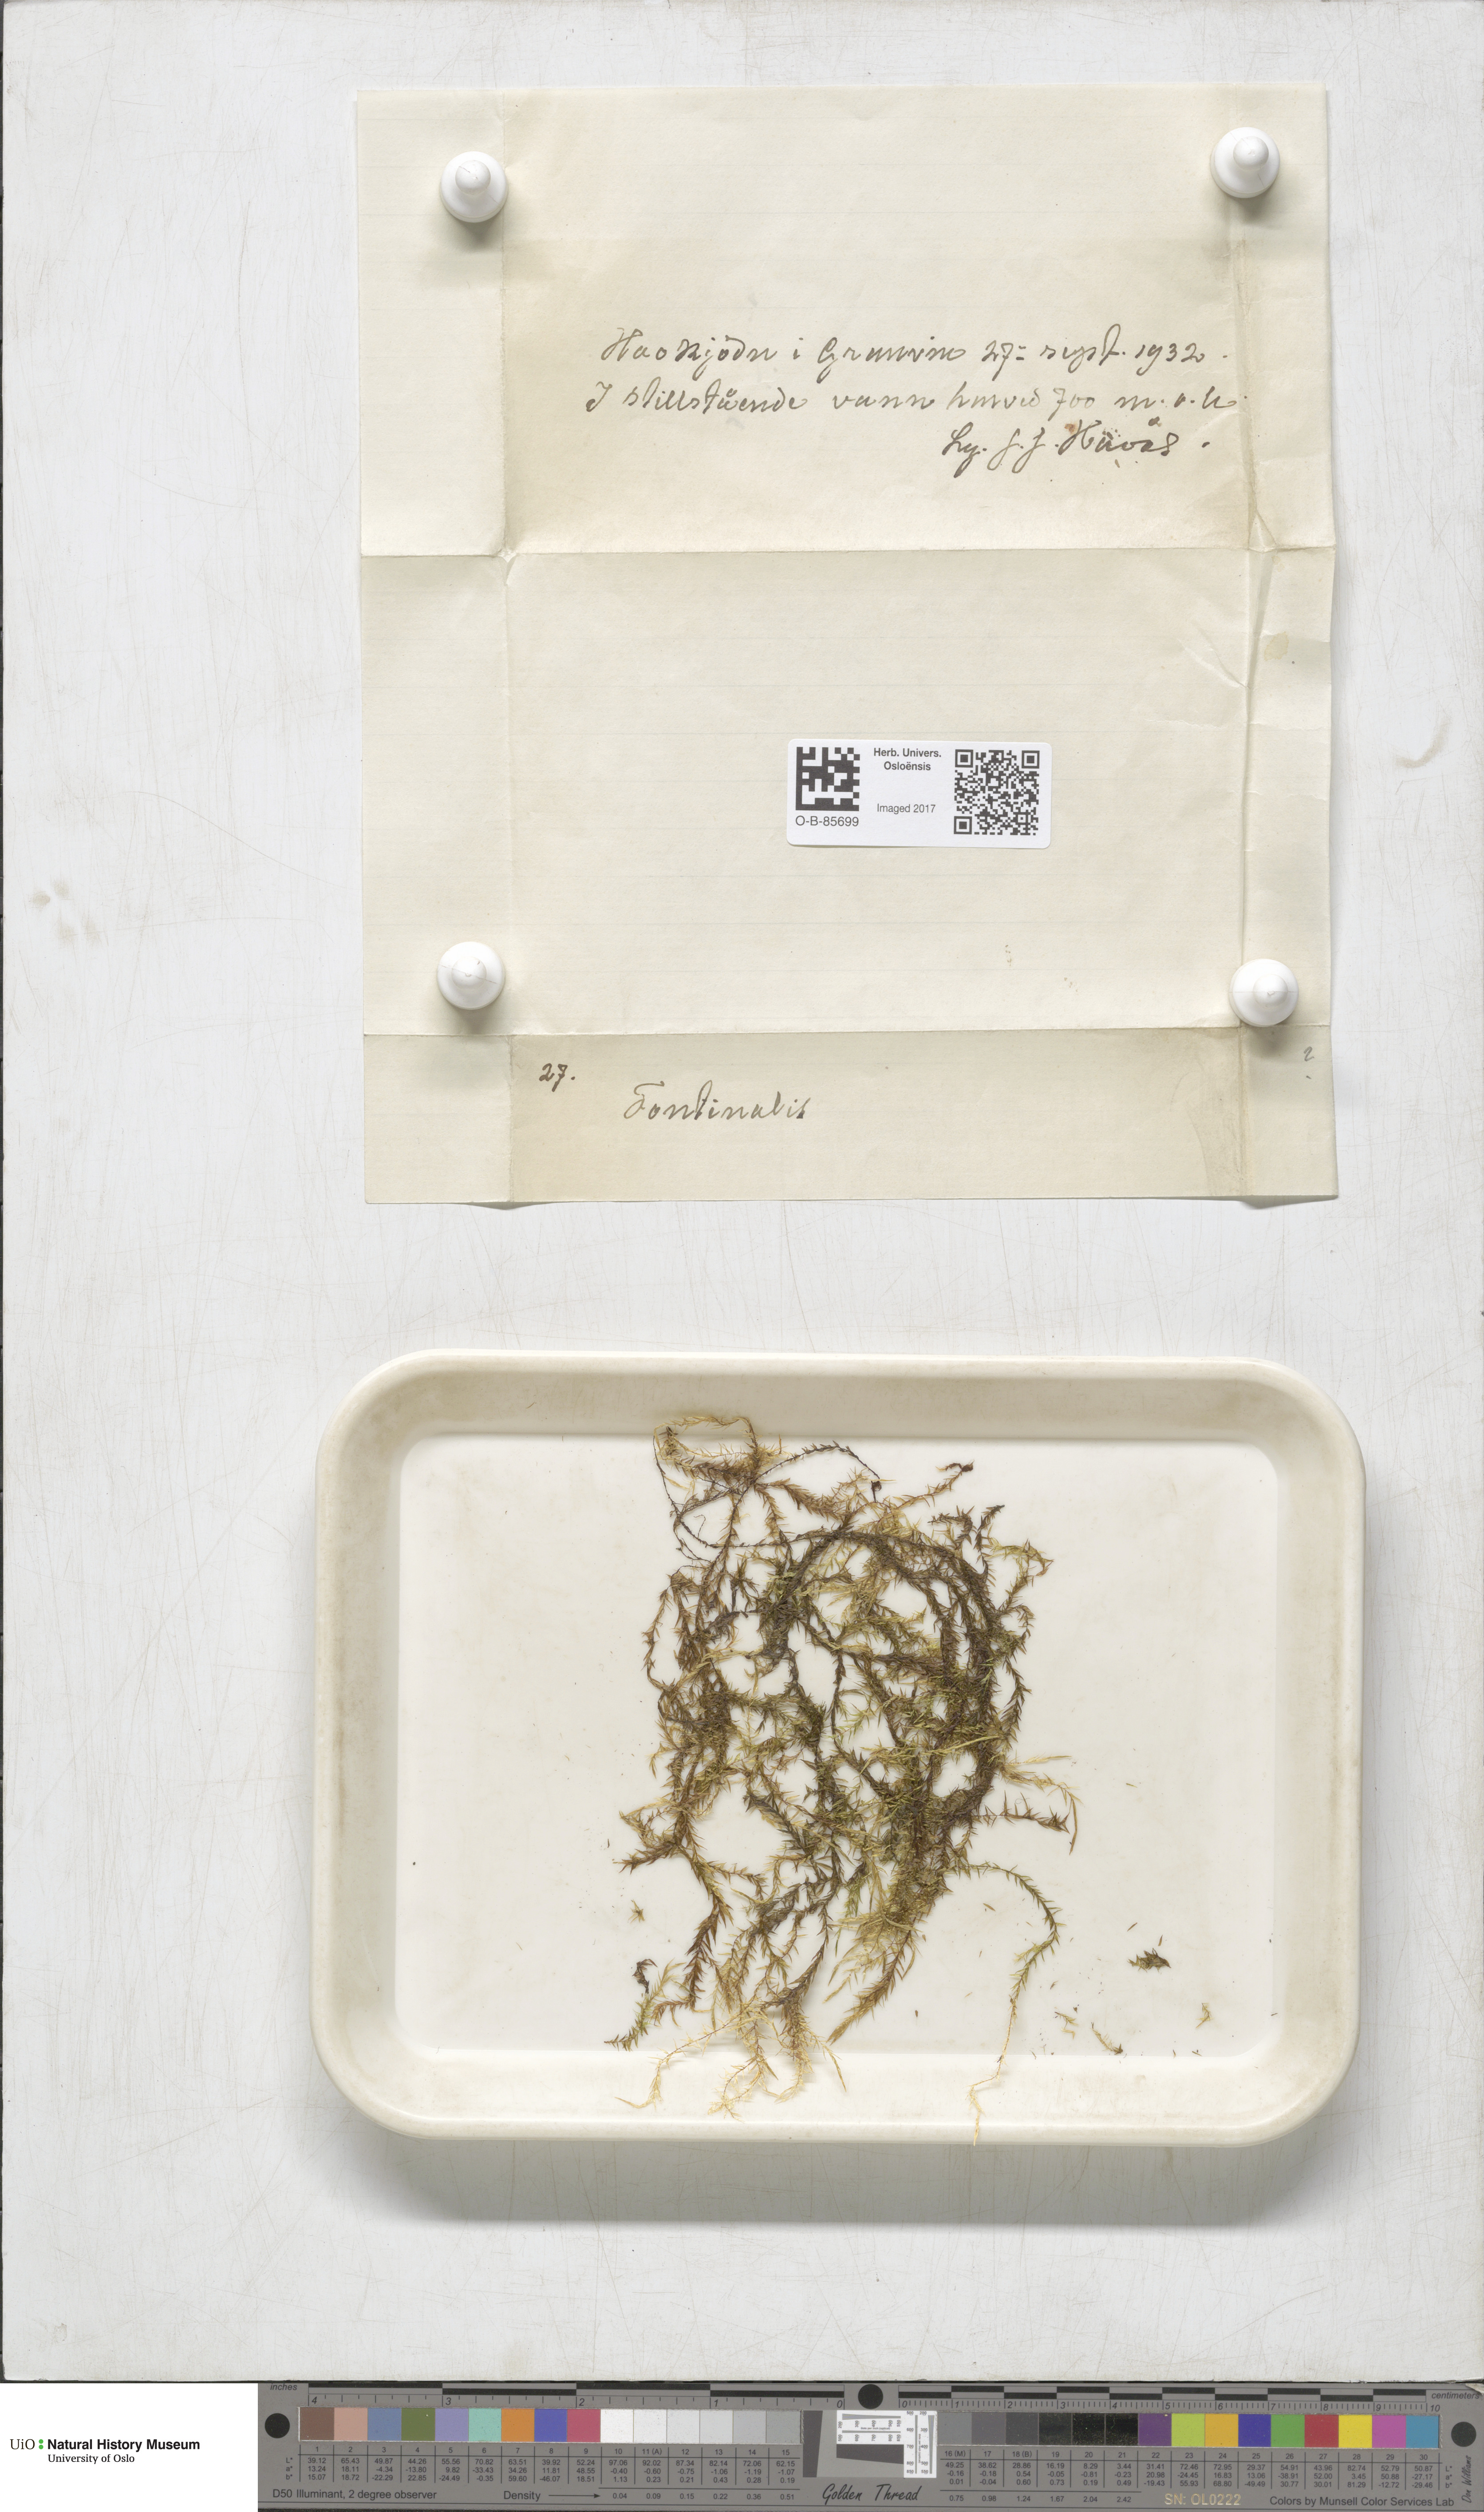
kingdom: Plantae
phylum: Bryophyta
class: Bryopsida
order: Hypnales
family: Fontinalaceae
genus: Fontinalis
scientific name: Fontinalis
